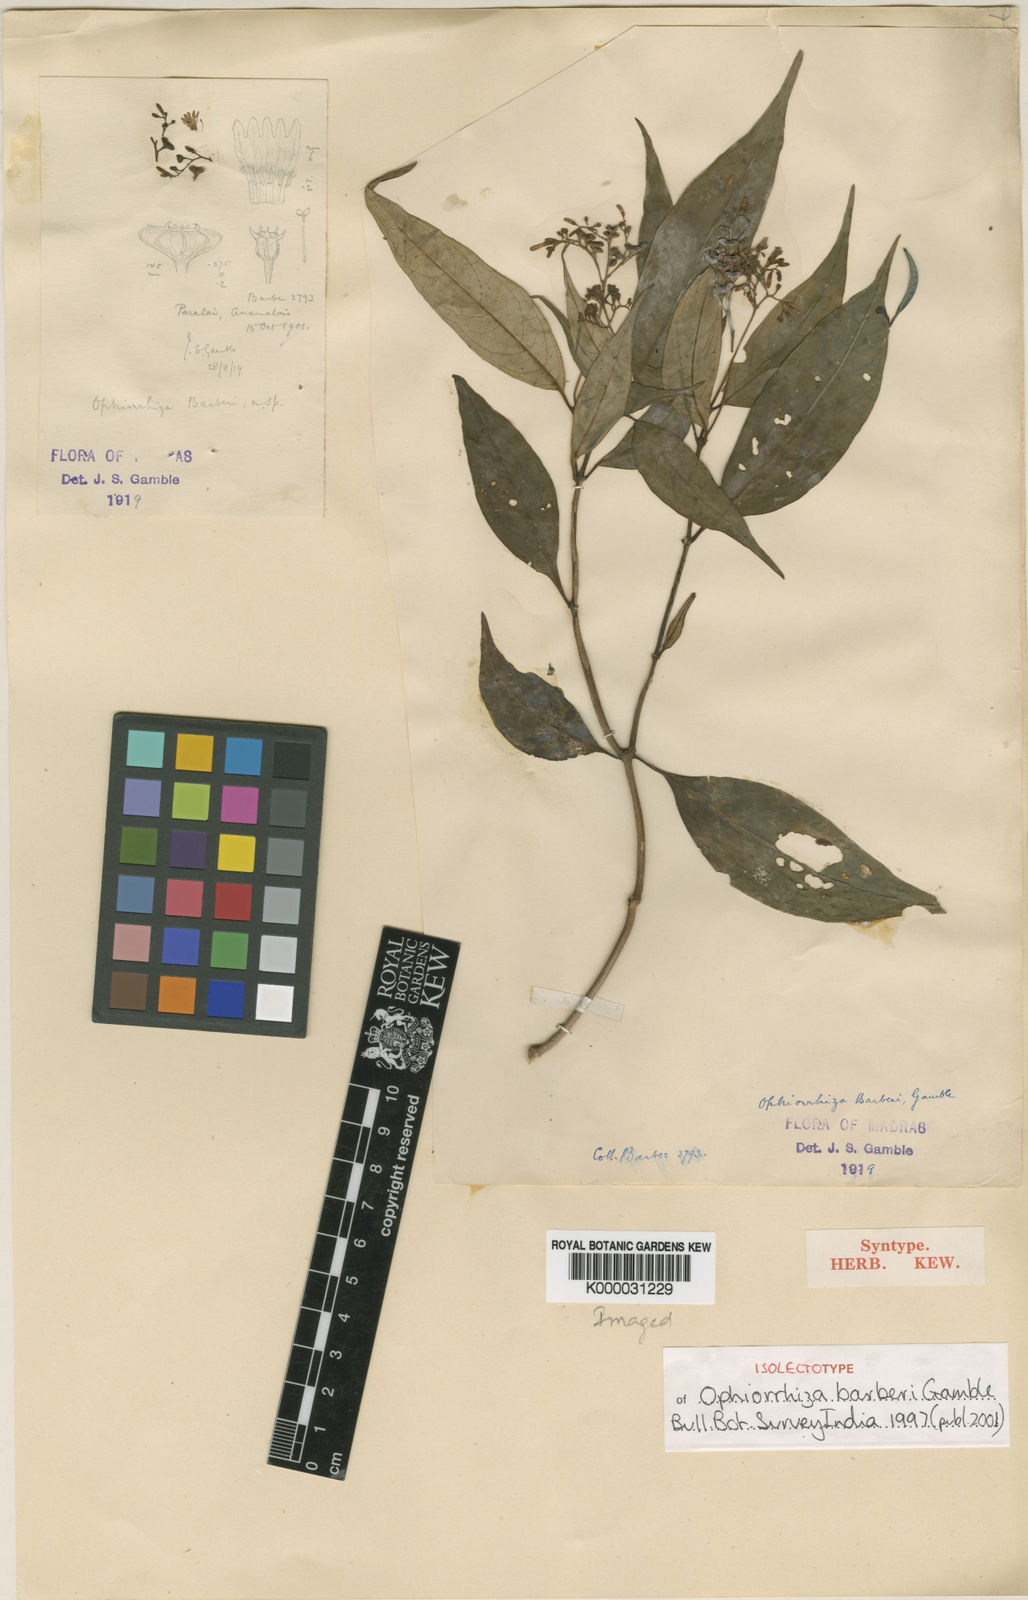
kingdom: Plantae
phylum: Tracheophyta
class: Magnoliopsida
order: Gentianales
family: Rubiaceae
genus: Ophiorrhiza
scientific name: Ophiorrhiza barberi
